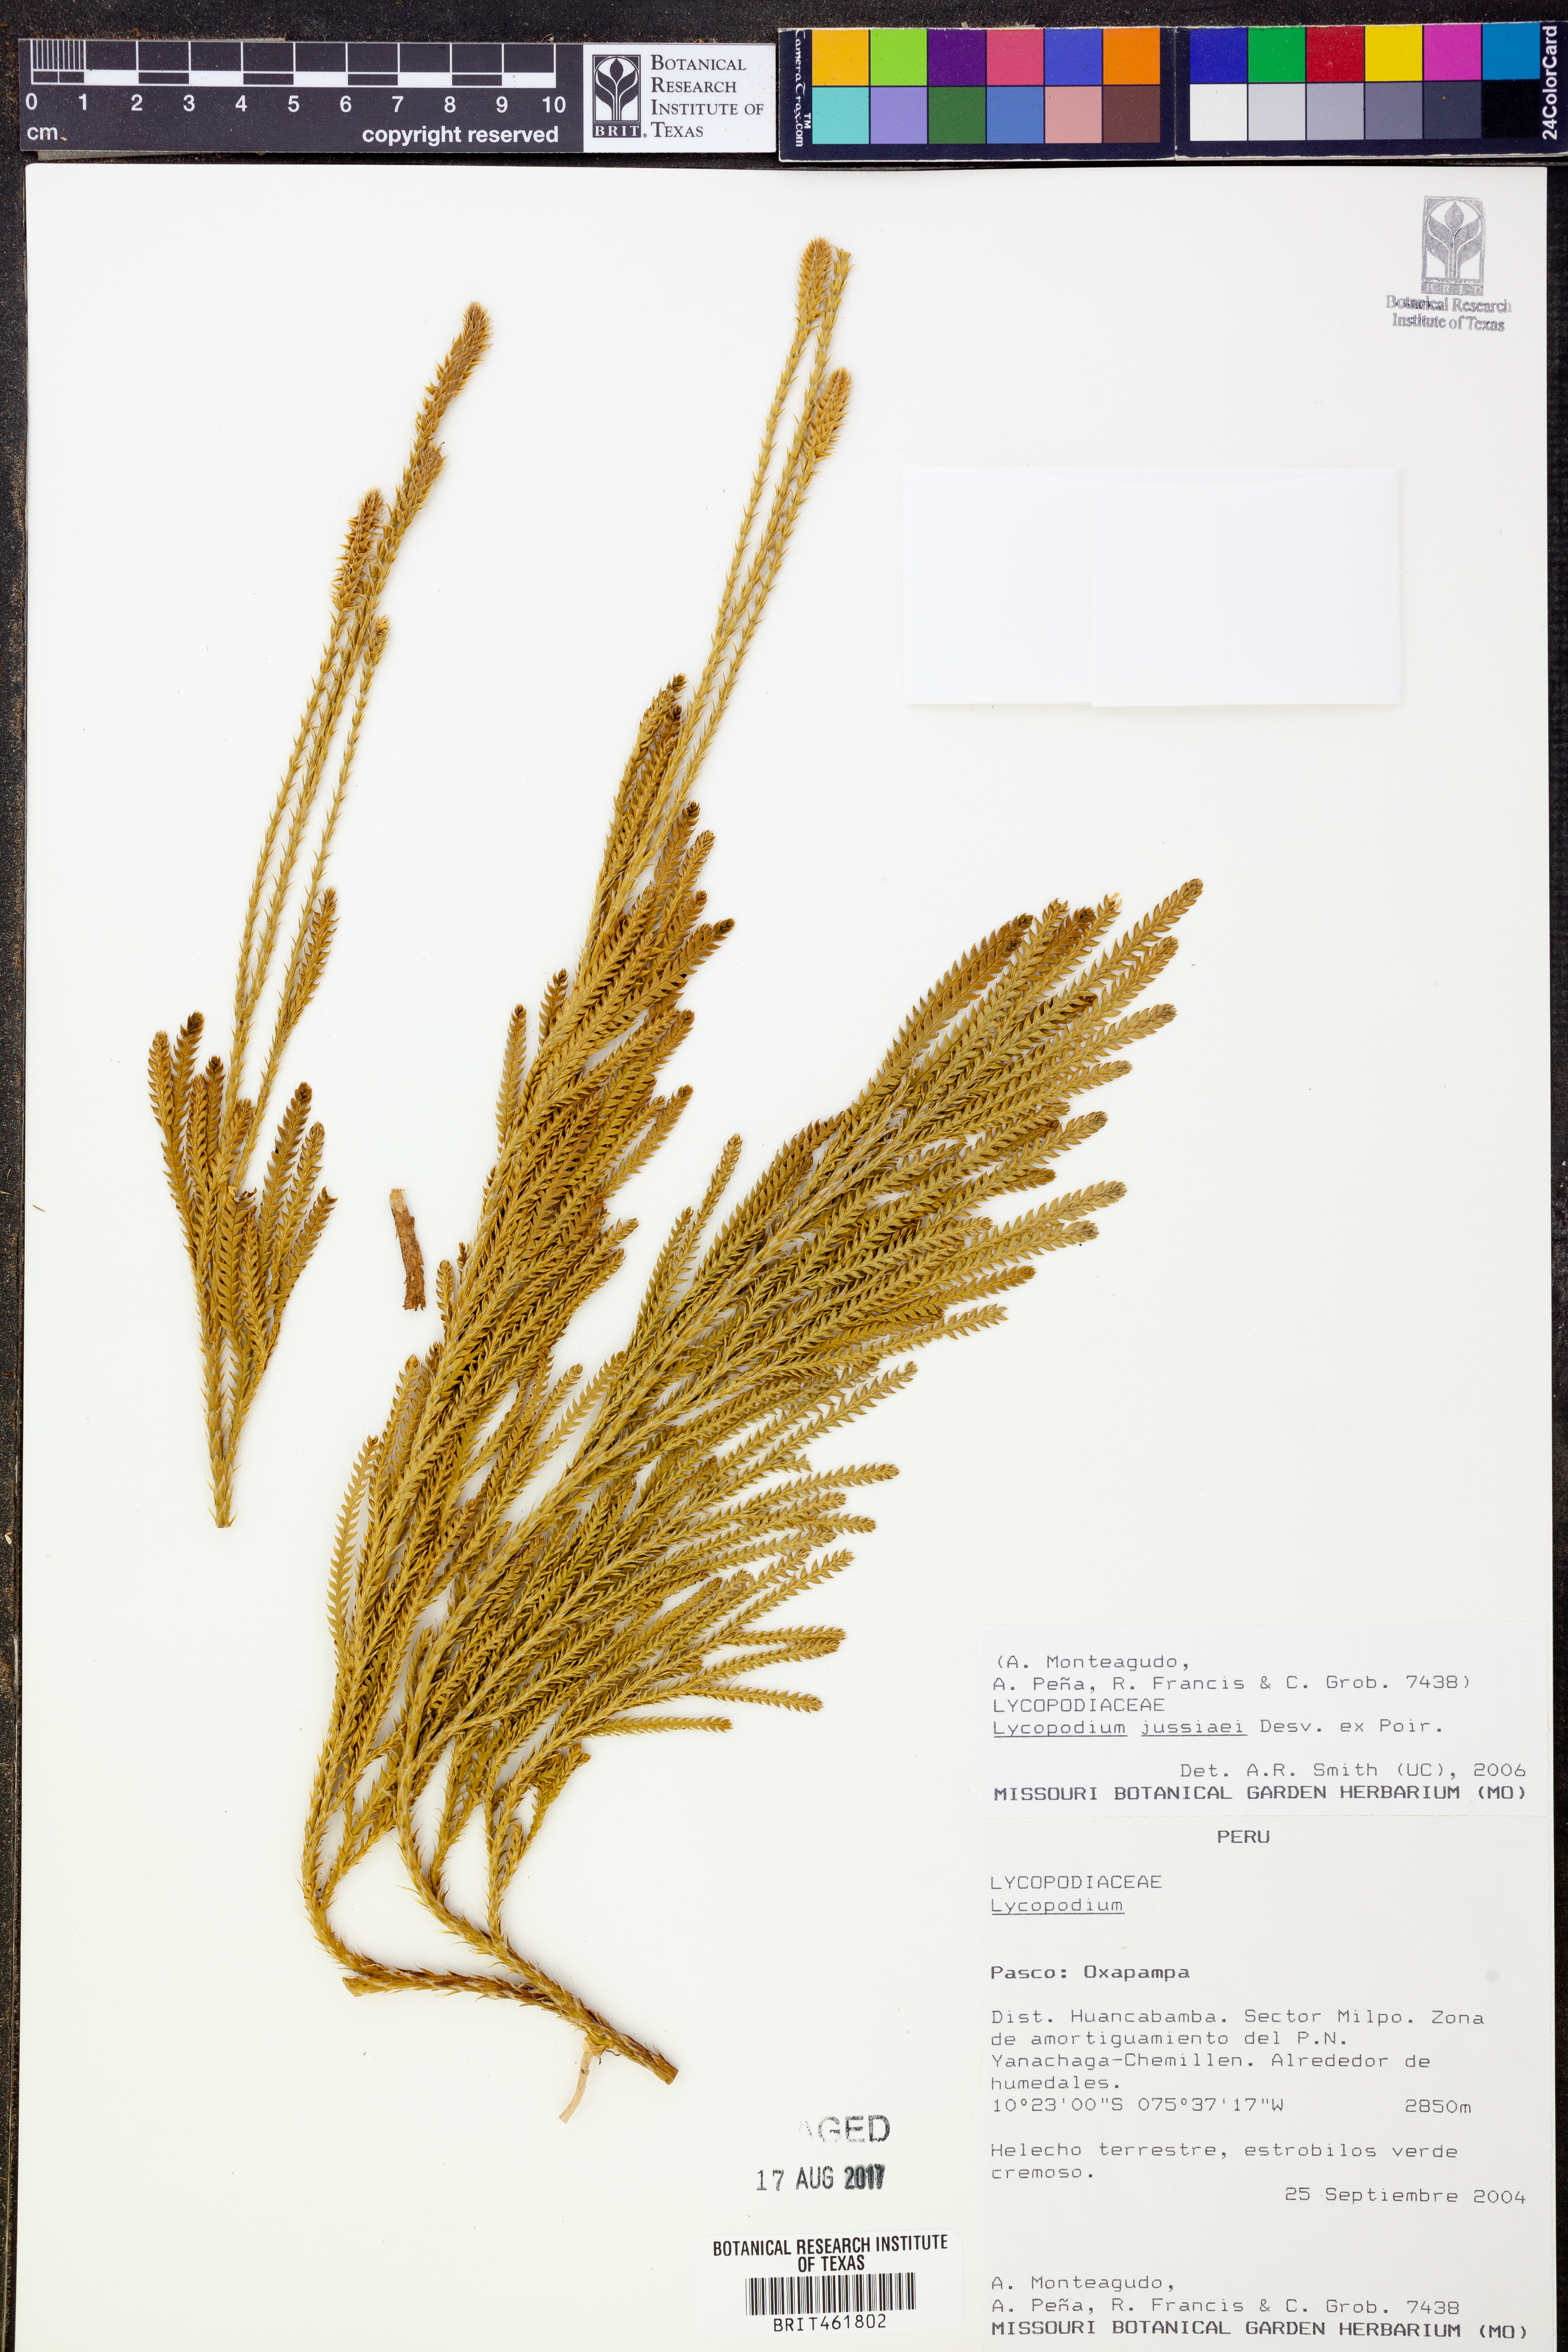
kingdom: Plantae
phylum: Tracheophyta
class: Lycopodiopsida
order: Lycopodiales
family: Lycopodiaceae
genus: Diphasium
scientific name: Diphasium jussiaei
